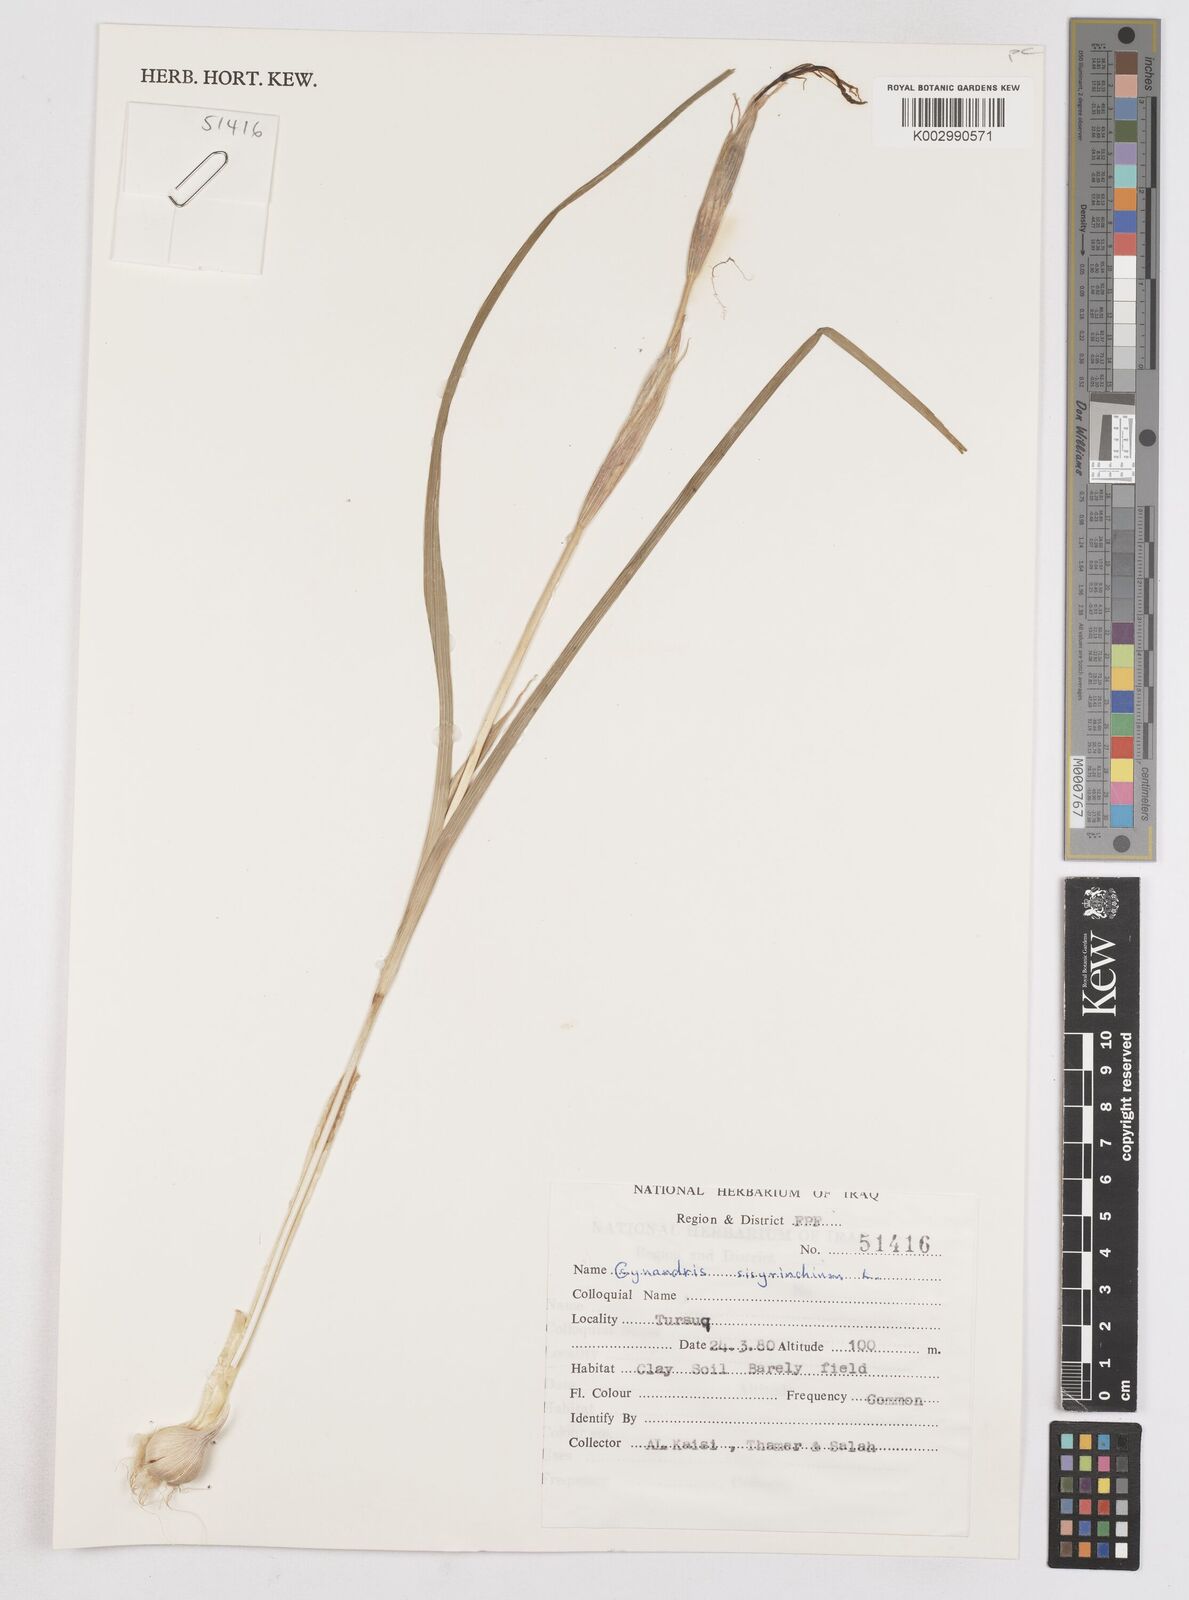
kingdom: Plantae
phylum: Tracheophyta
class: Liliopsida
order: Asparagales
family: Iridaceae
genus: Moraea
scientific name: Moraea sisyrinchium
